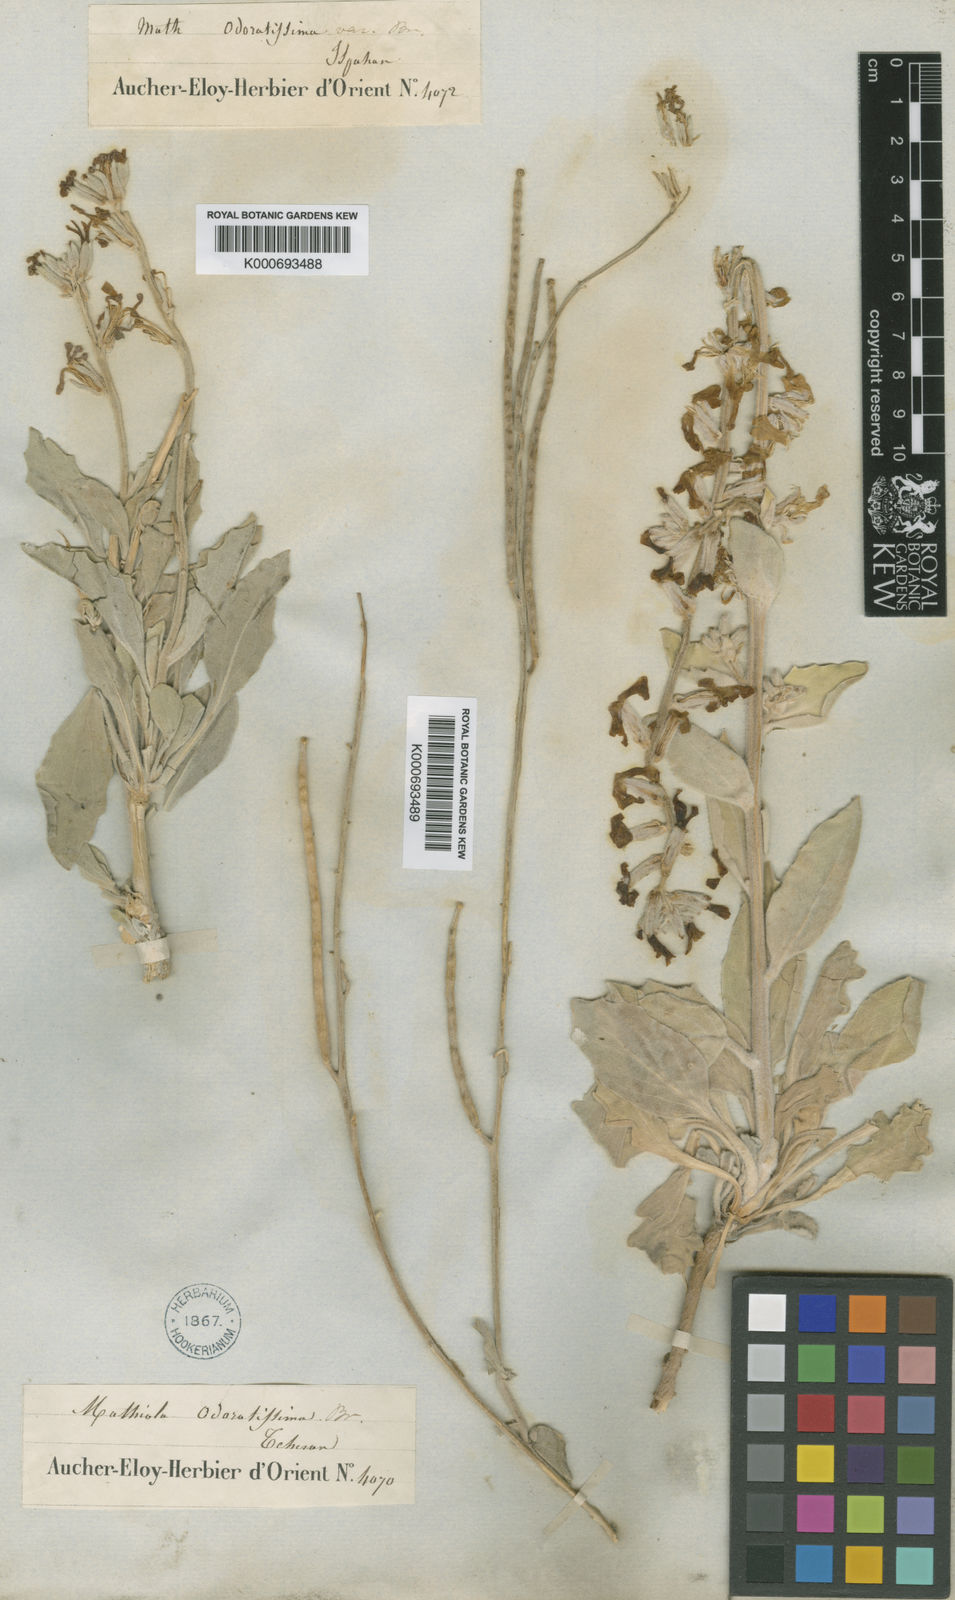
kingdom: Plantae
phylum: Tracheophyta
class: Magnoliopsida
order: Brassicales
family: Brassicaceae
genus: Matthiola
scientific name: Matthiola ovatifolia
